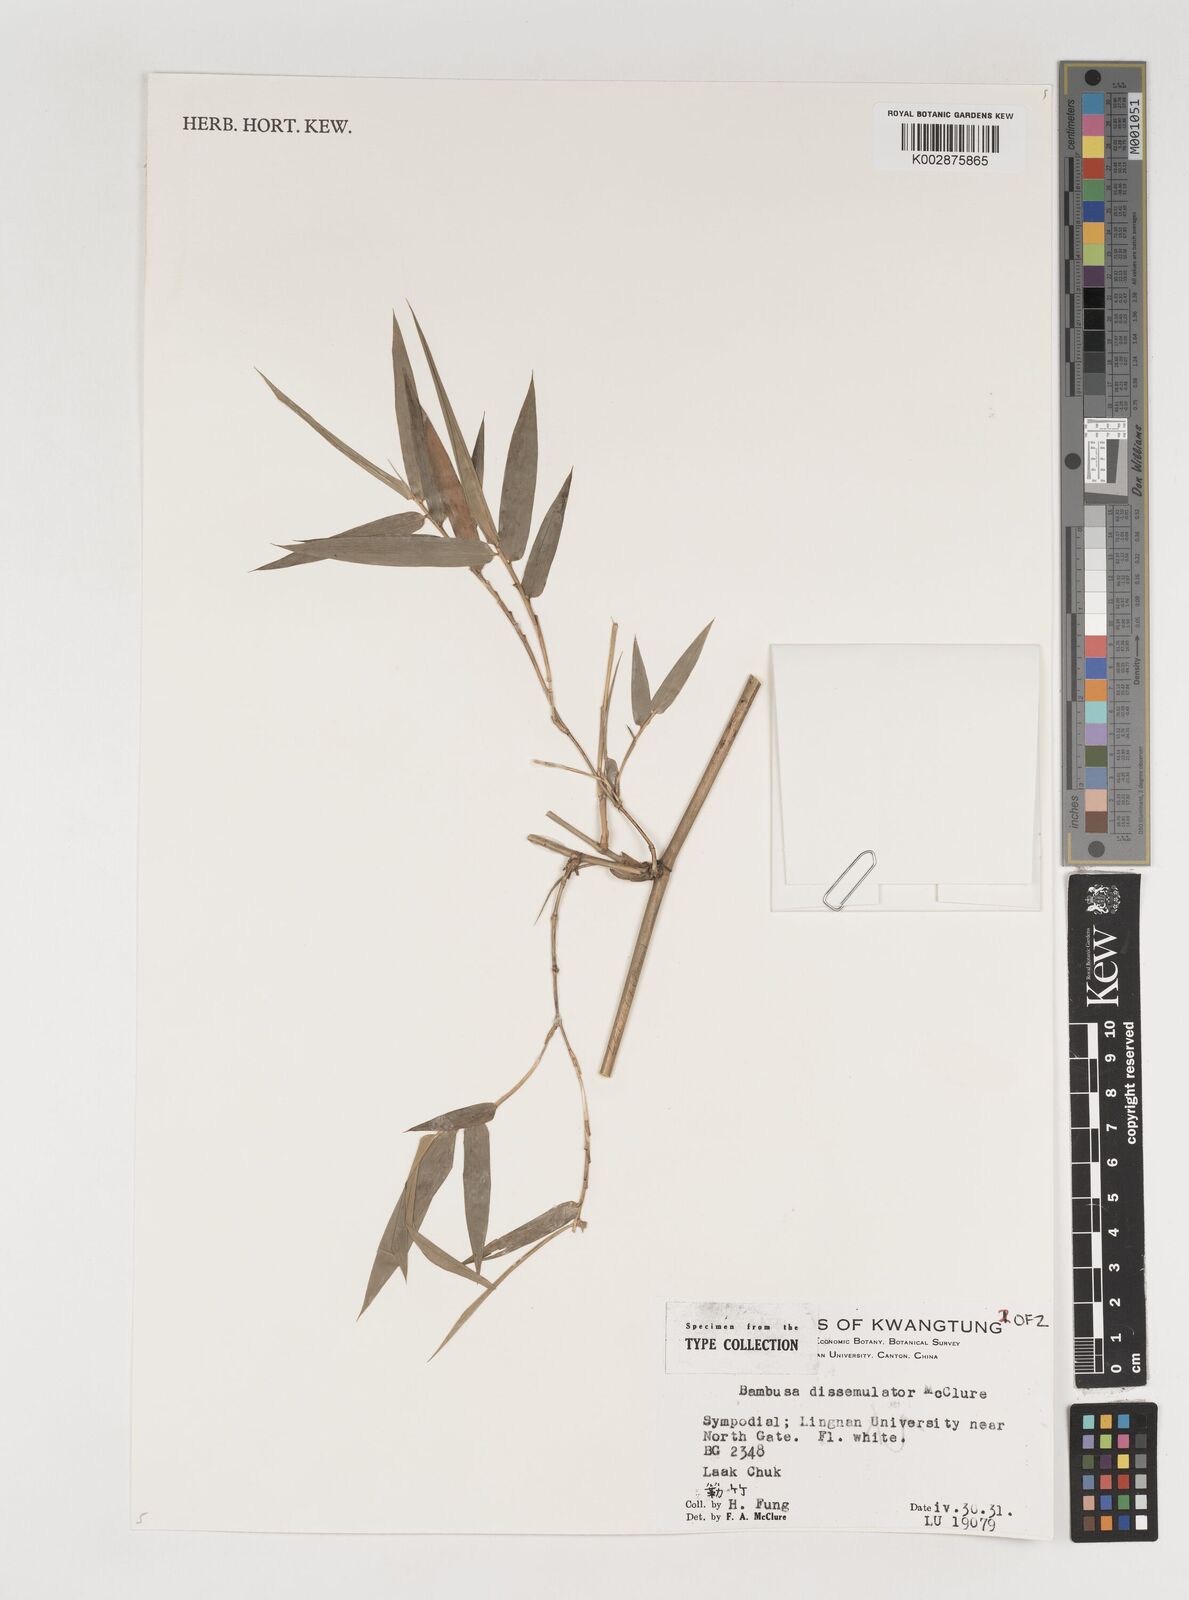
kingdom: Plantae
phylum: Tracheophyta
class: Liliopsida
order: Poales
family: Poaceae
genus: Bambusa
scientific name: Bambusa dissimulator
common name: Muddy bamboo
